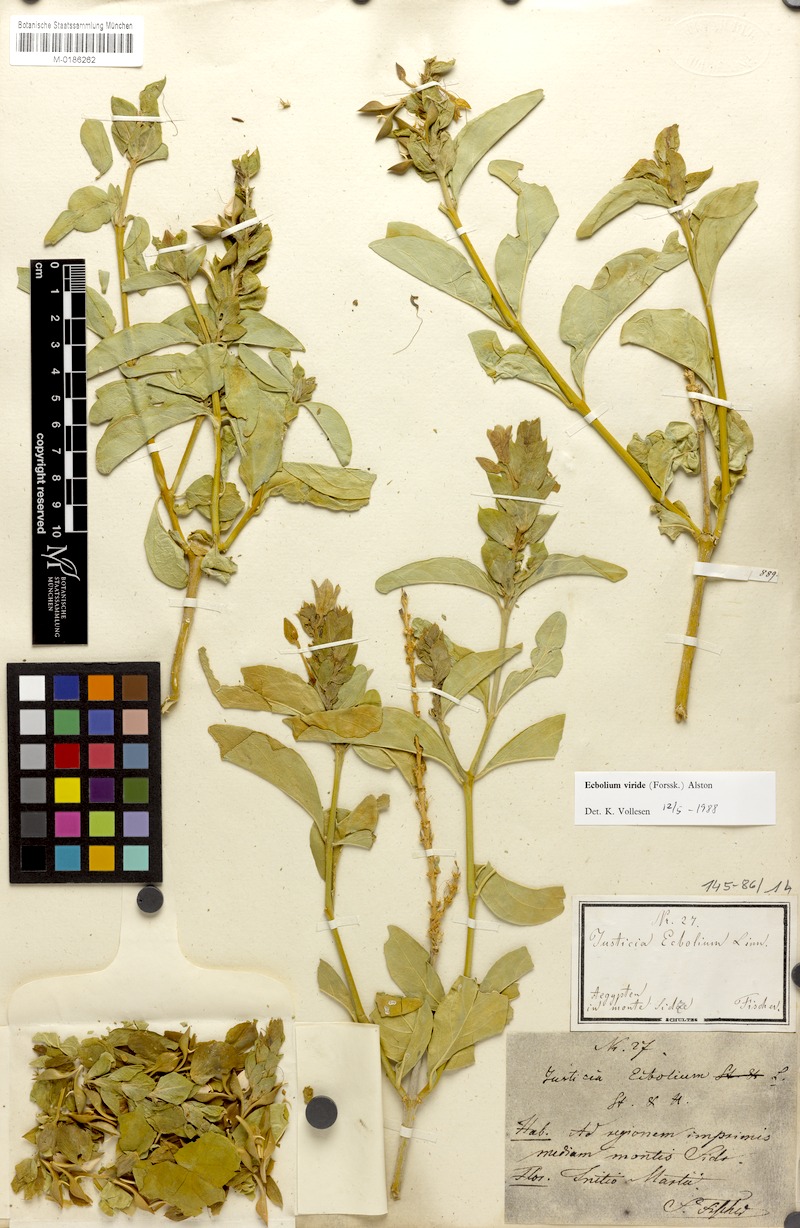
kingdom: Plantae
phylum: Tracheophyta
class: Magnoliopsida
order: Lamiales
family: Acanthaceae
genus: Ecbolium
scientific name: Ecbolium viride
